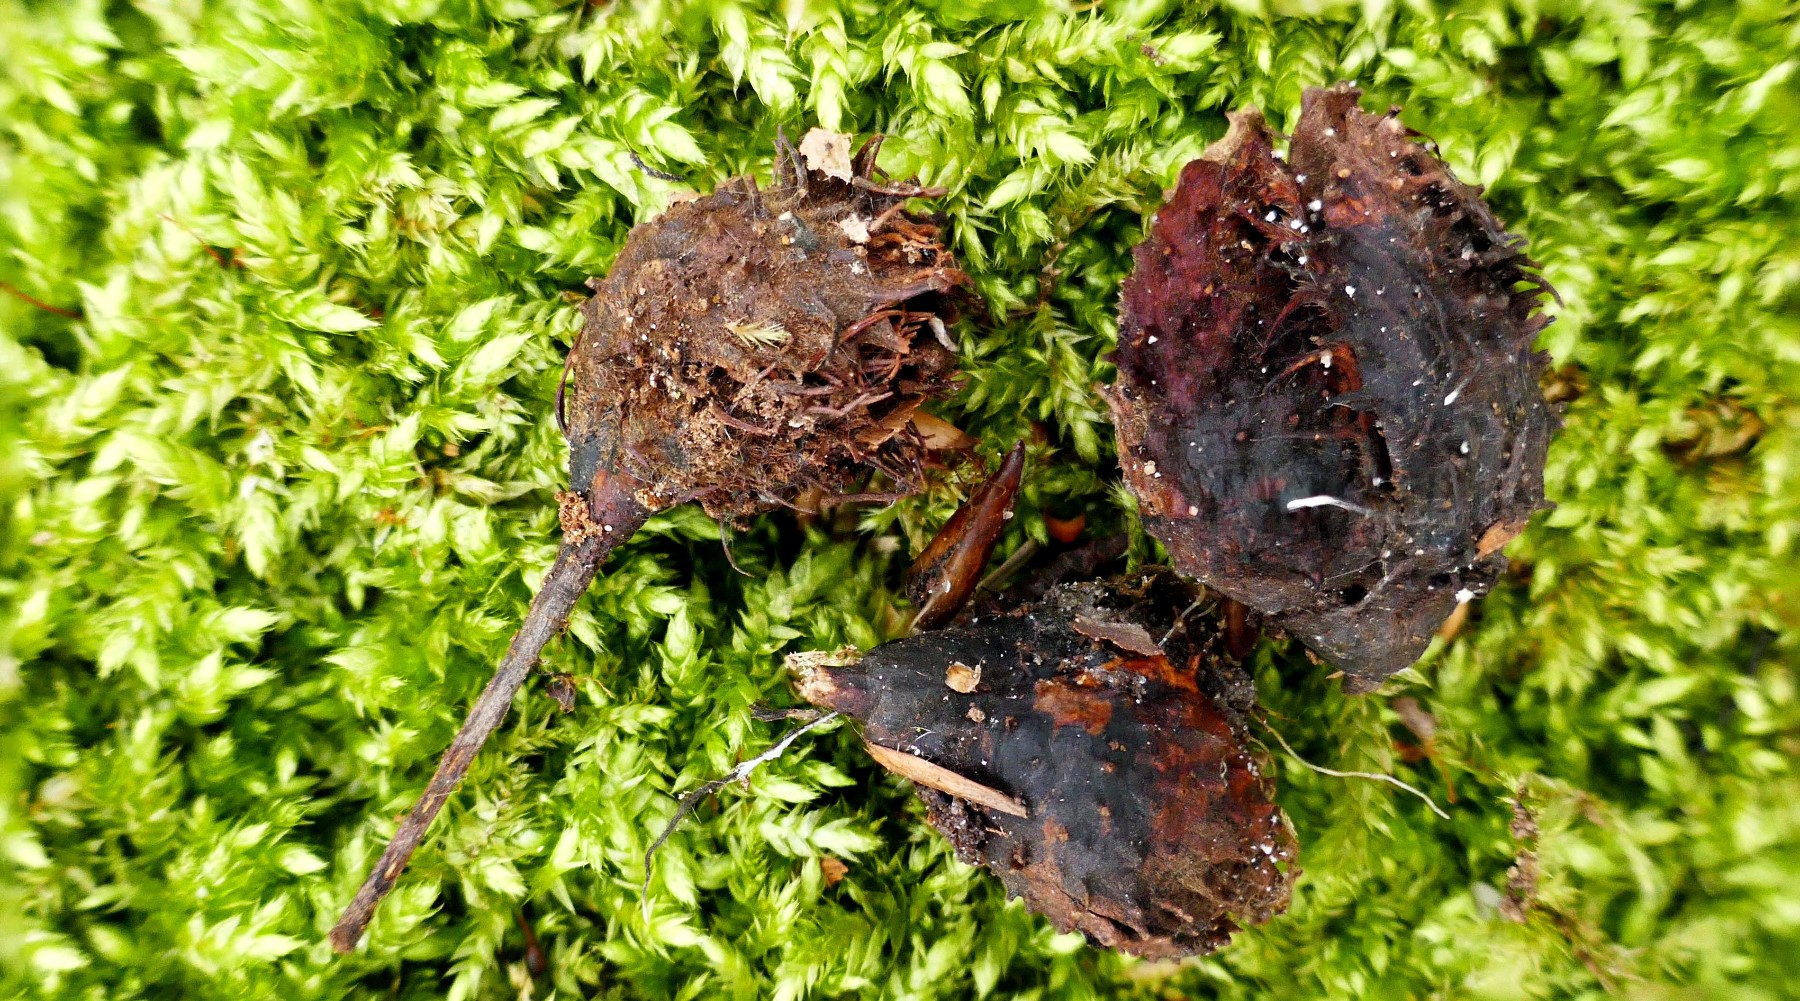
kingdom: Fungi
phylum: Ascomycota
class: Sordariomycetes
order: Xylariales
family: Xylariaceae
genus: Xylaria
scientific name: Xylaria carpophila
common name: bogskål-stødsvamp
